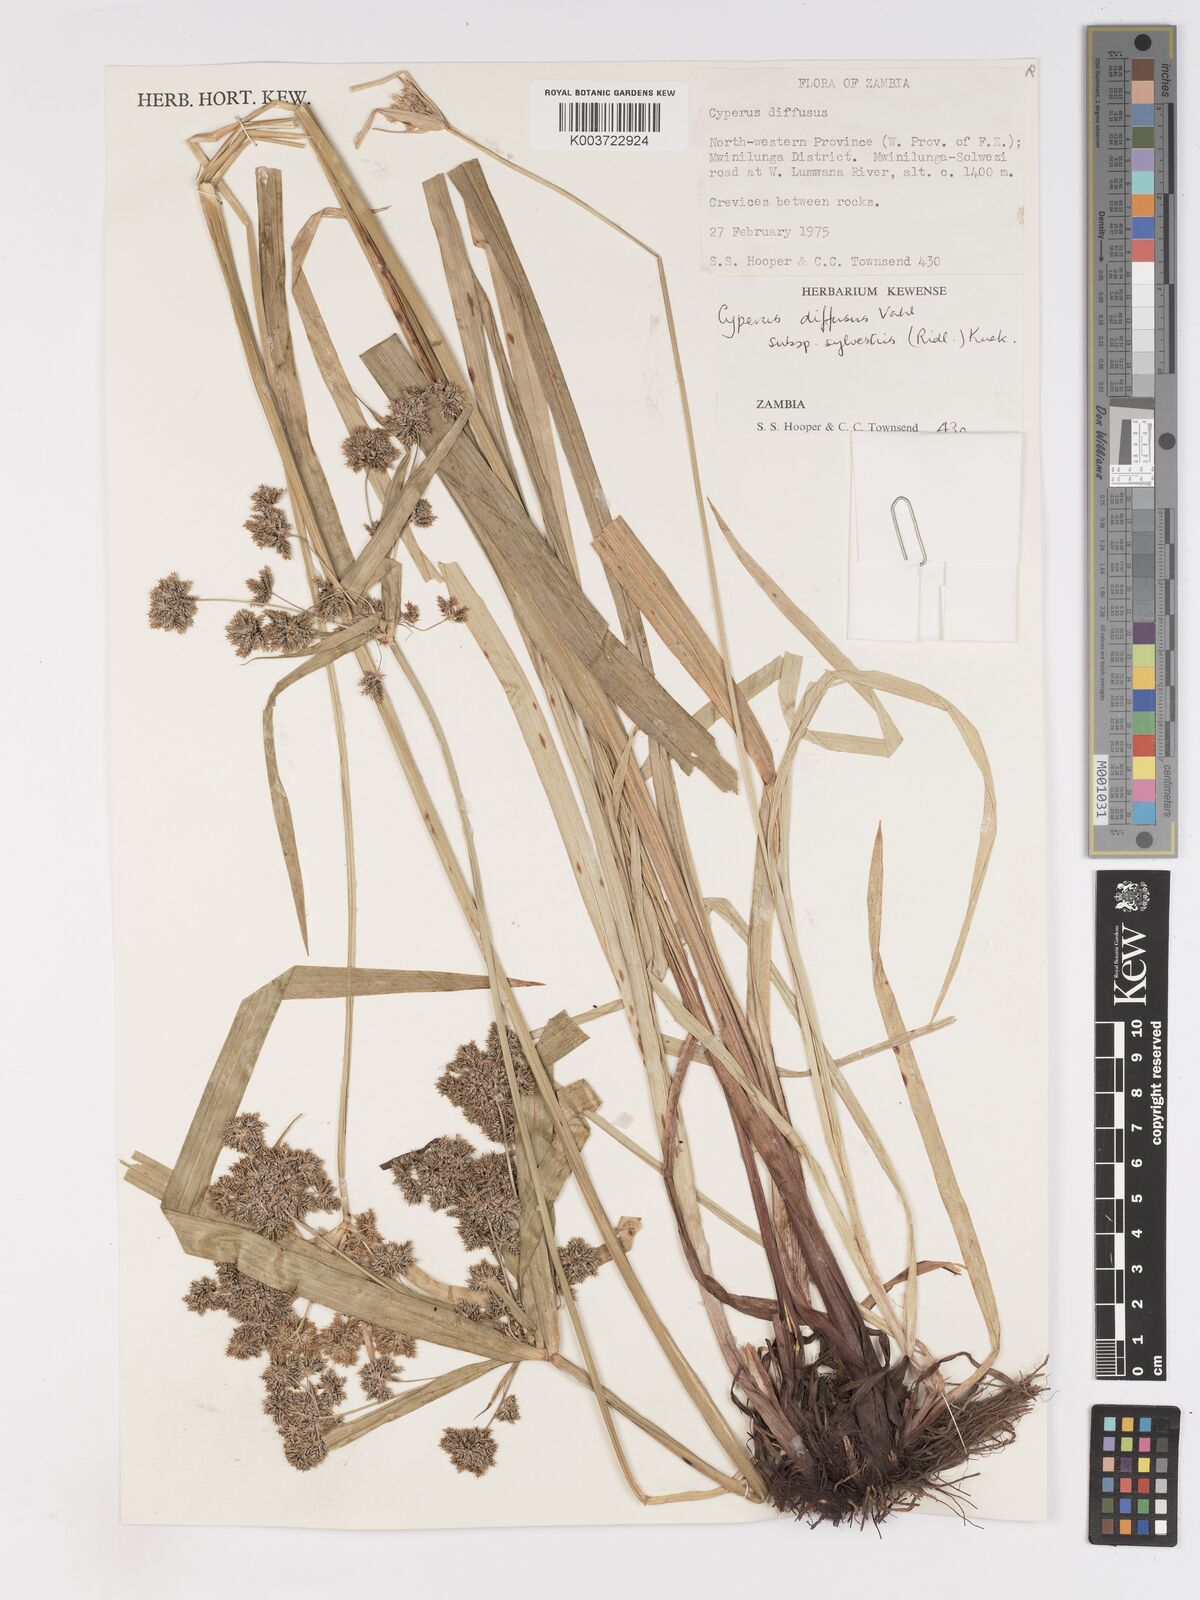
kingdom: Plantae
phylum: Tracheophyta
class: Liliopsida
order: Poales
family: Cyperaceae
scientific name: Cyperaceae
